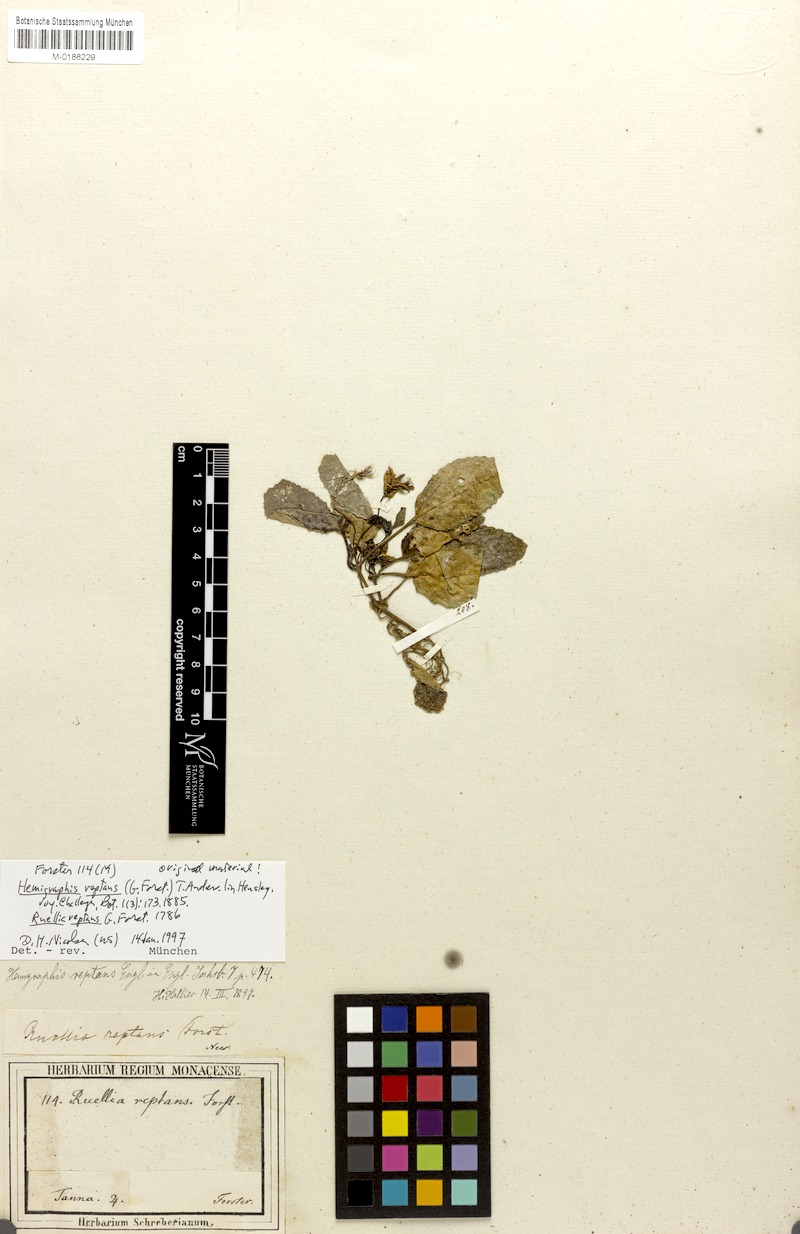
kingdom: Plantae
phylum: Tracheophyta
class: Magnoliopsida
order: Lamiales
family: Acanthaceae
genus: Strobilanthes
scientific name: Strobilanthes reptans
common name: Acanthaceae
